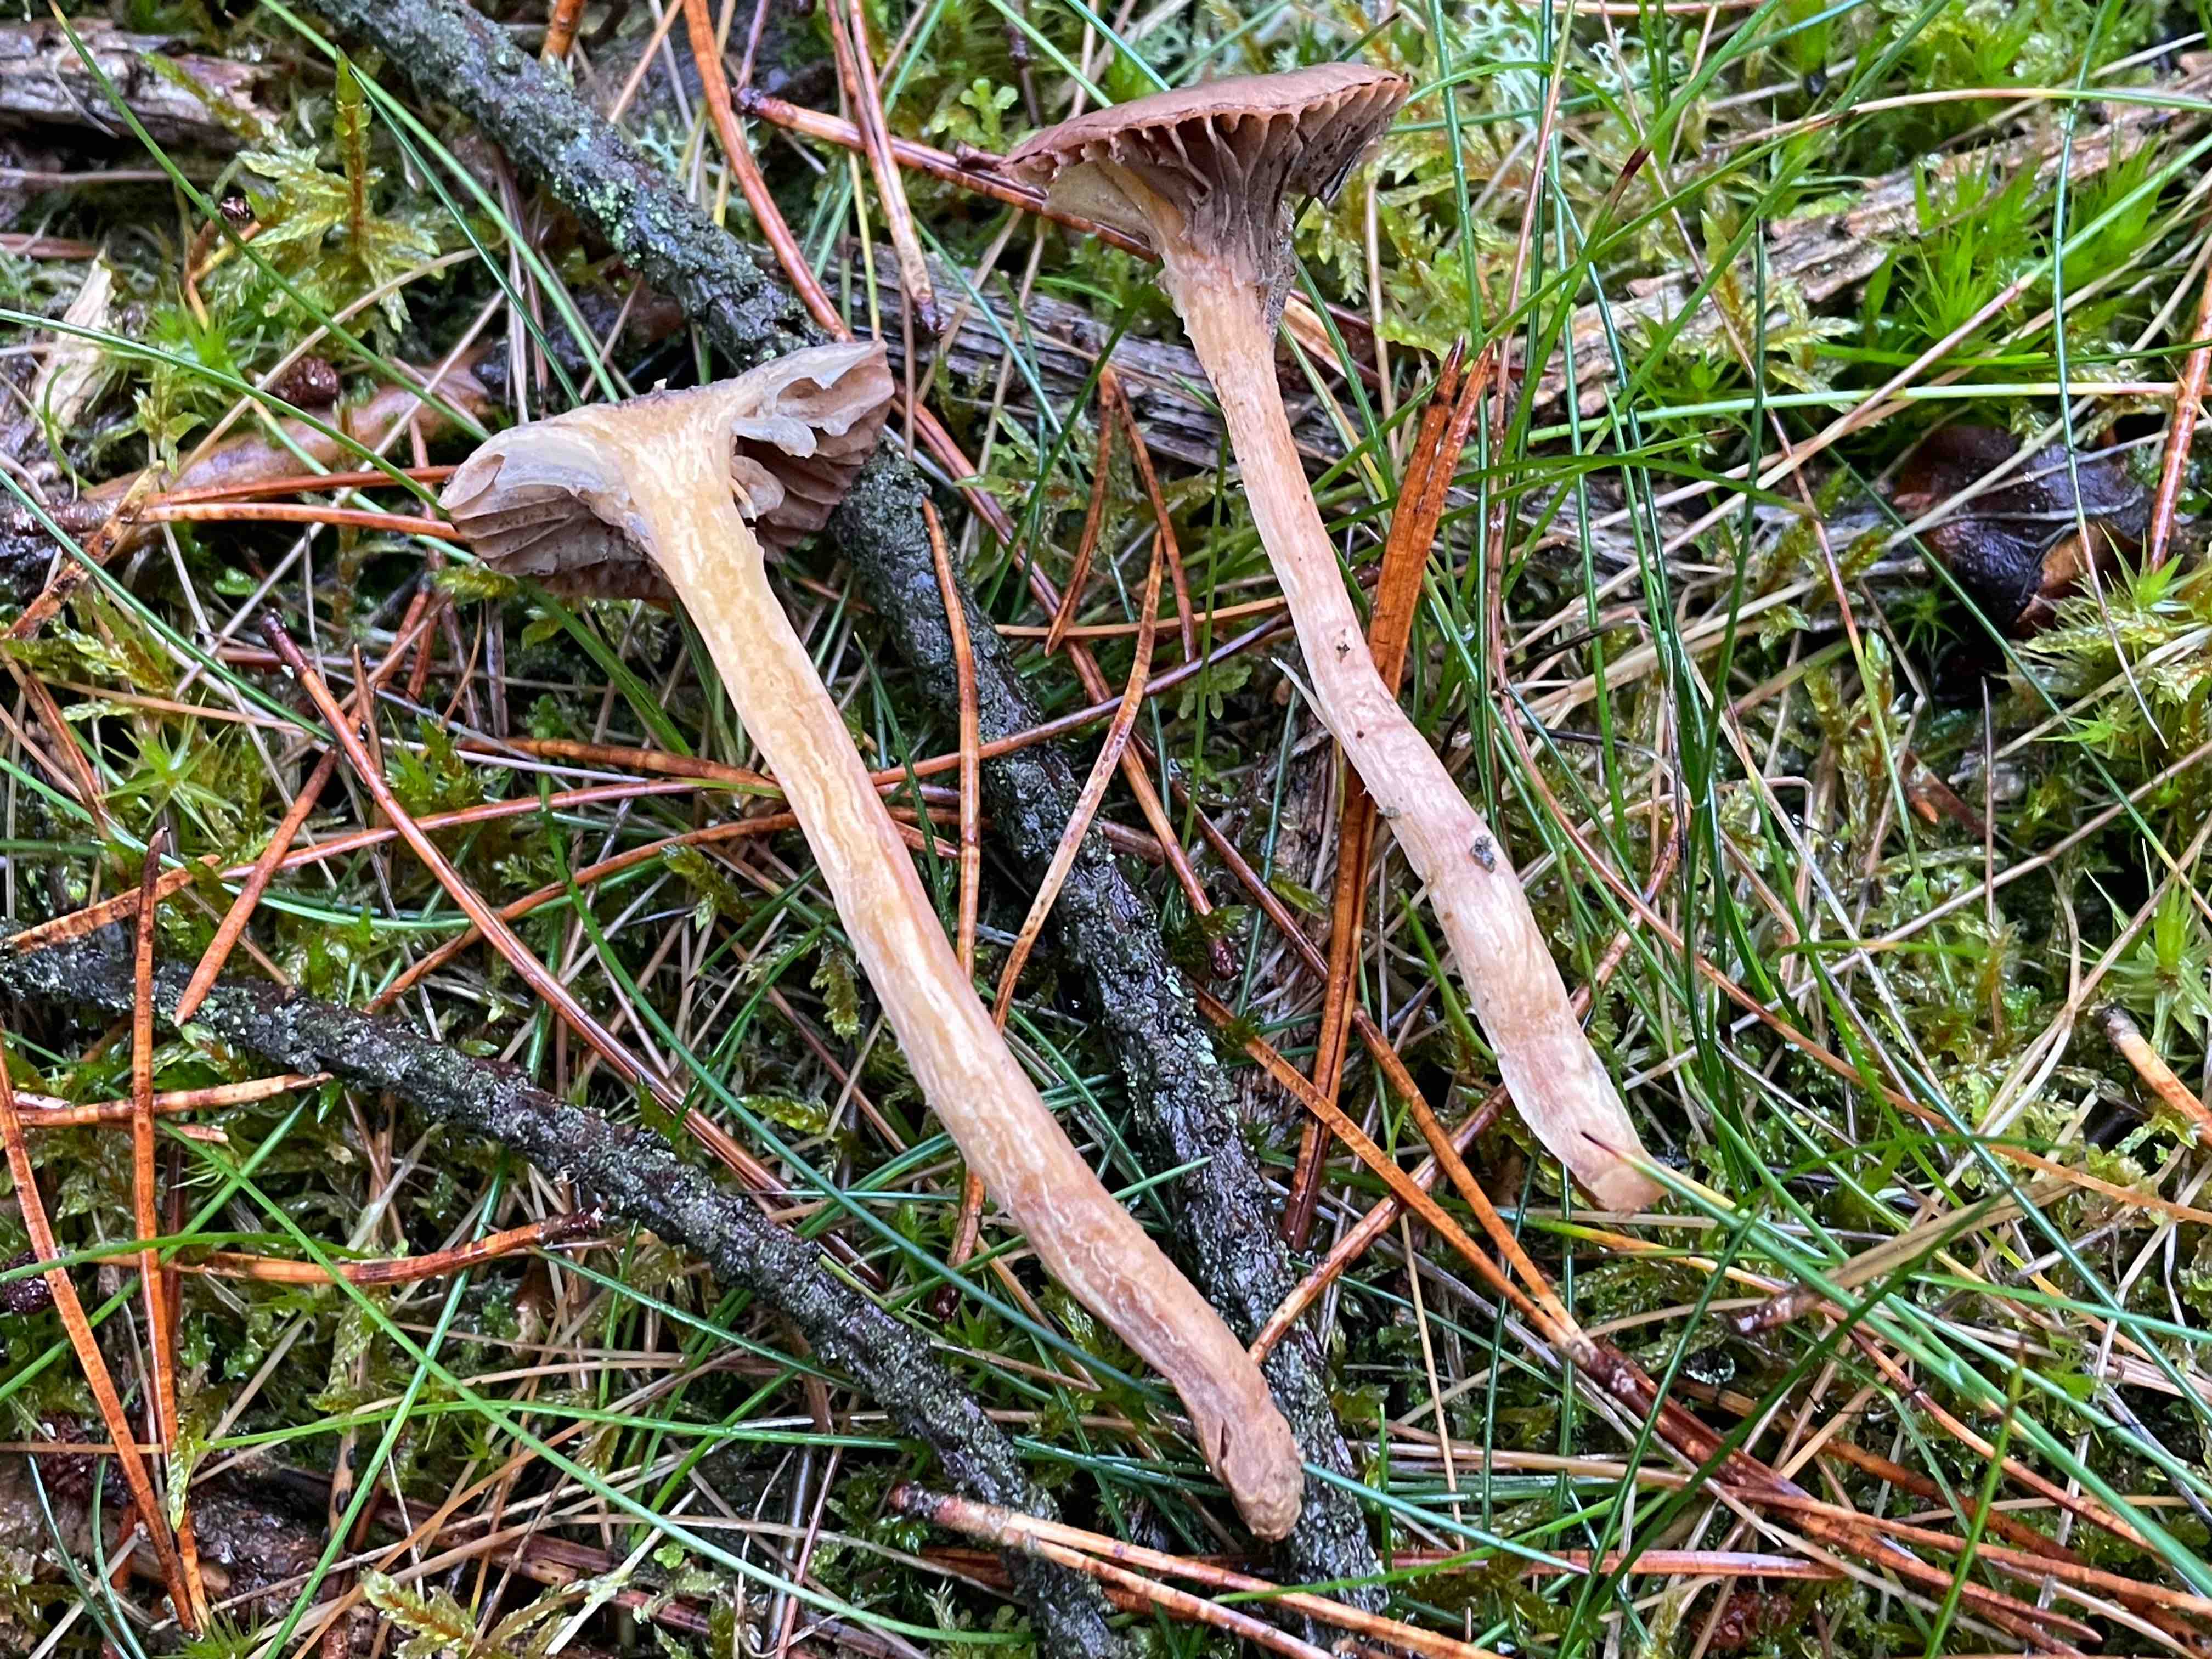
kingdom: Fungi
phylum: Basidiomycota
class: Agaricomycetes
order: Boletales
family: Gomphidiaceae
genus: Chroogomphus
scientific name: Chroogomphus rutilus
